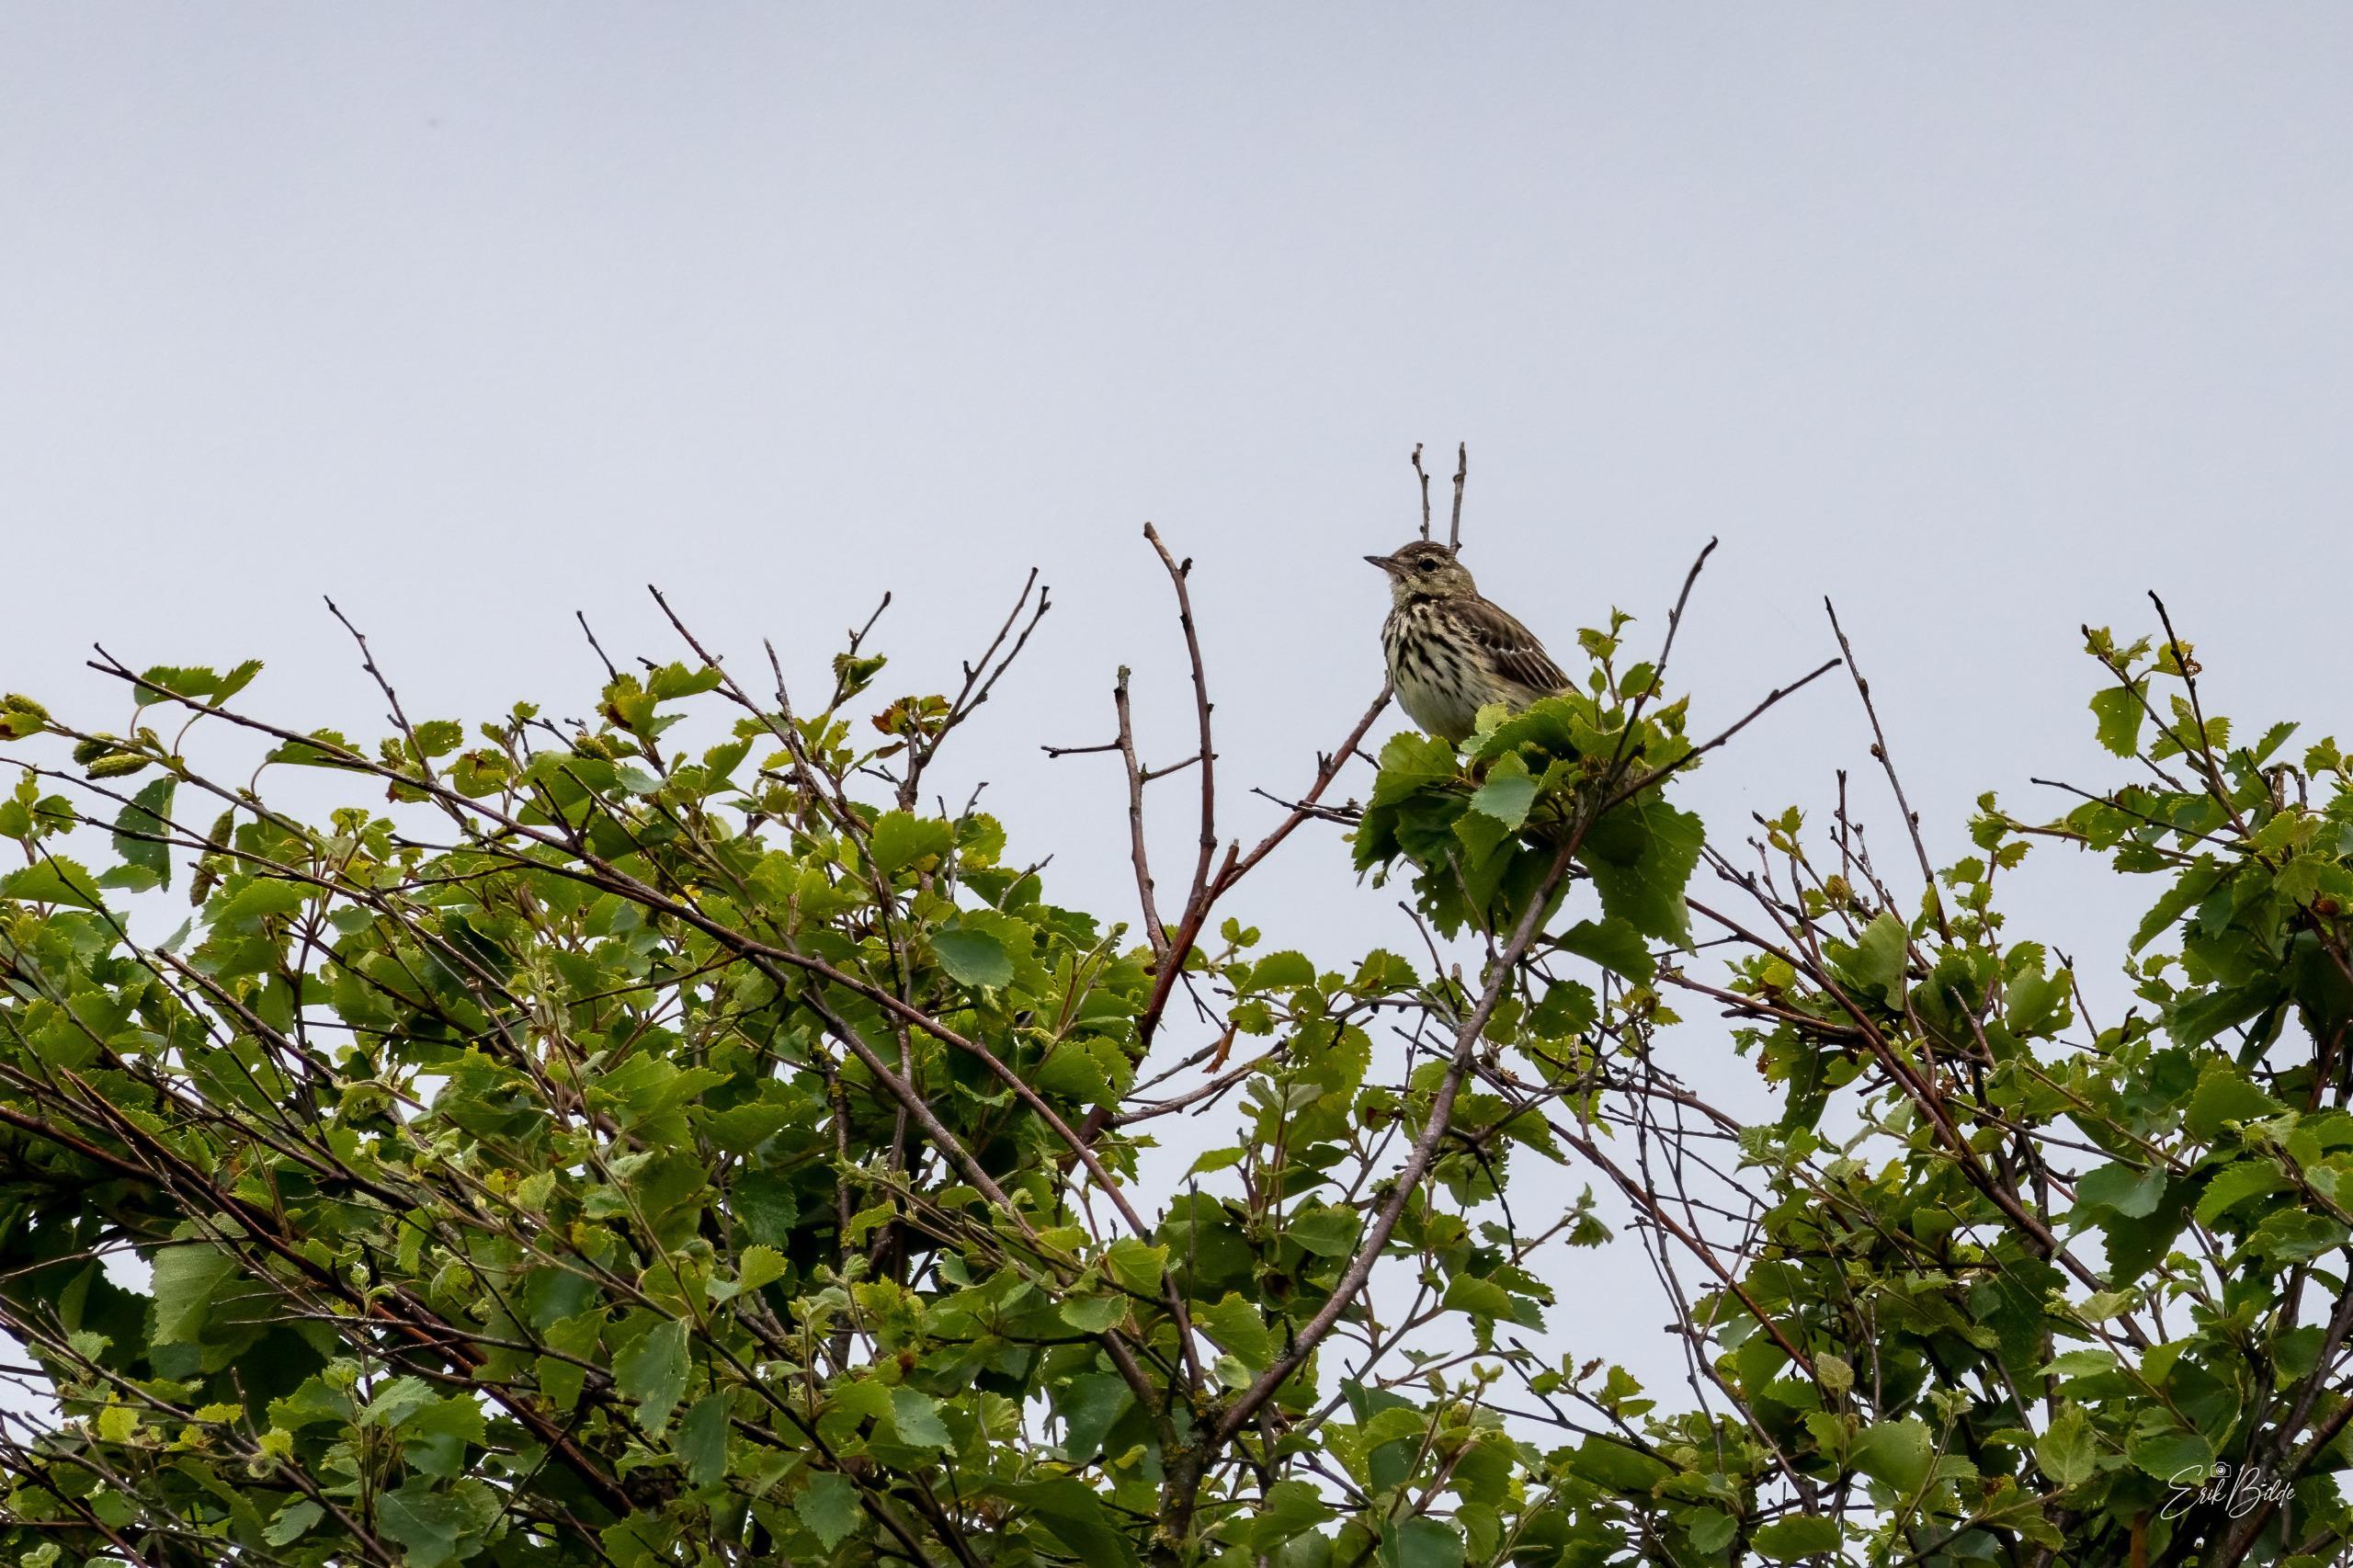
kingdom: Animalia
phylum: Chordata
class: Aves
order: Passeriformes
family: Motacillidae
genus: Anthus
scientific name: Anthus trivialis
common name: Skovpiber
